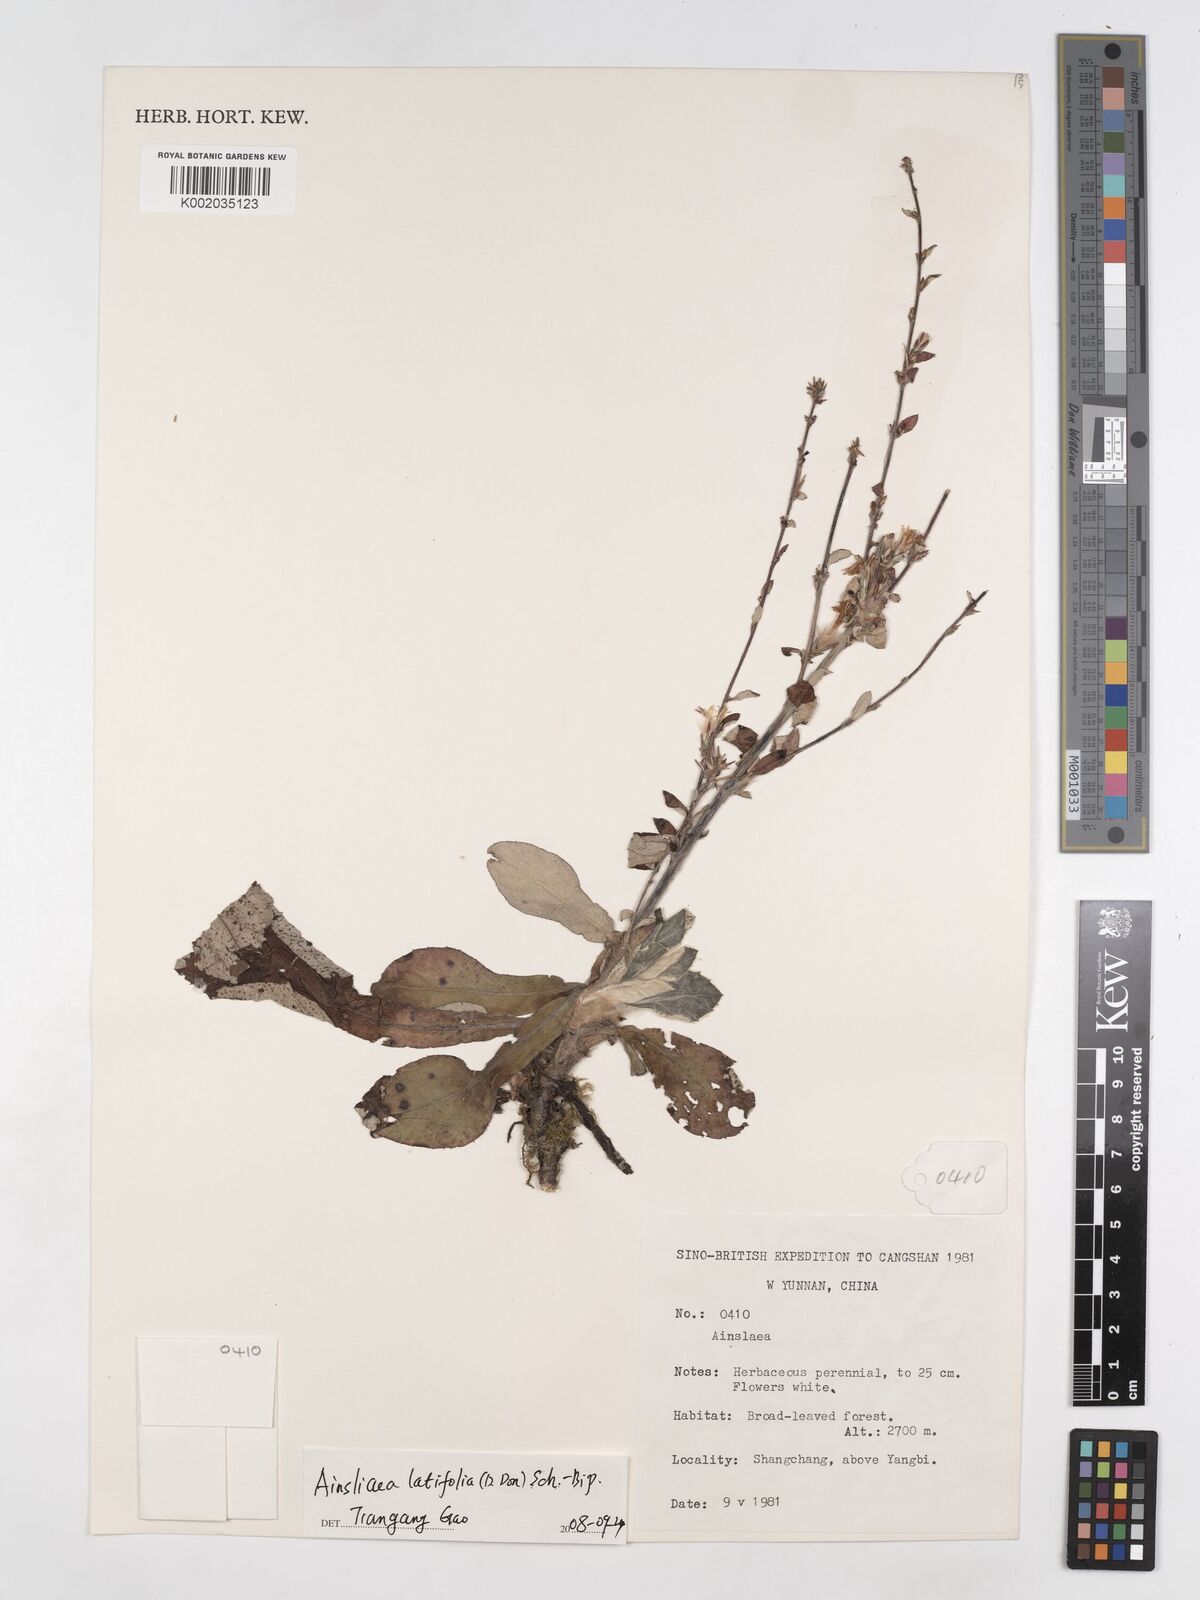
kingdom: Plantae
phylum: Tracheophyta
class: Magnoliopsida
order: Asterales
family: Asteraceae
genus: Ainsliaea
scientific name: Ainsliaea latifolia
